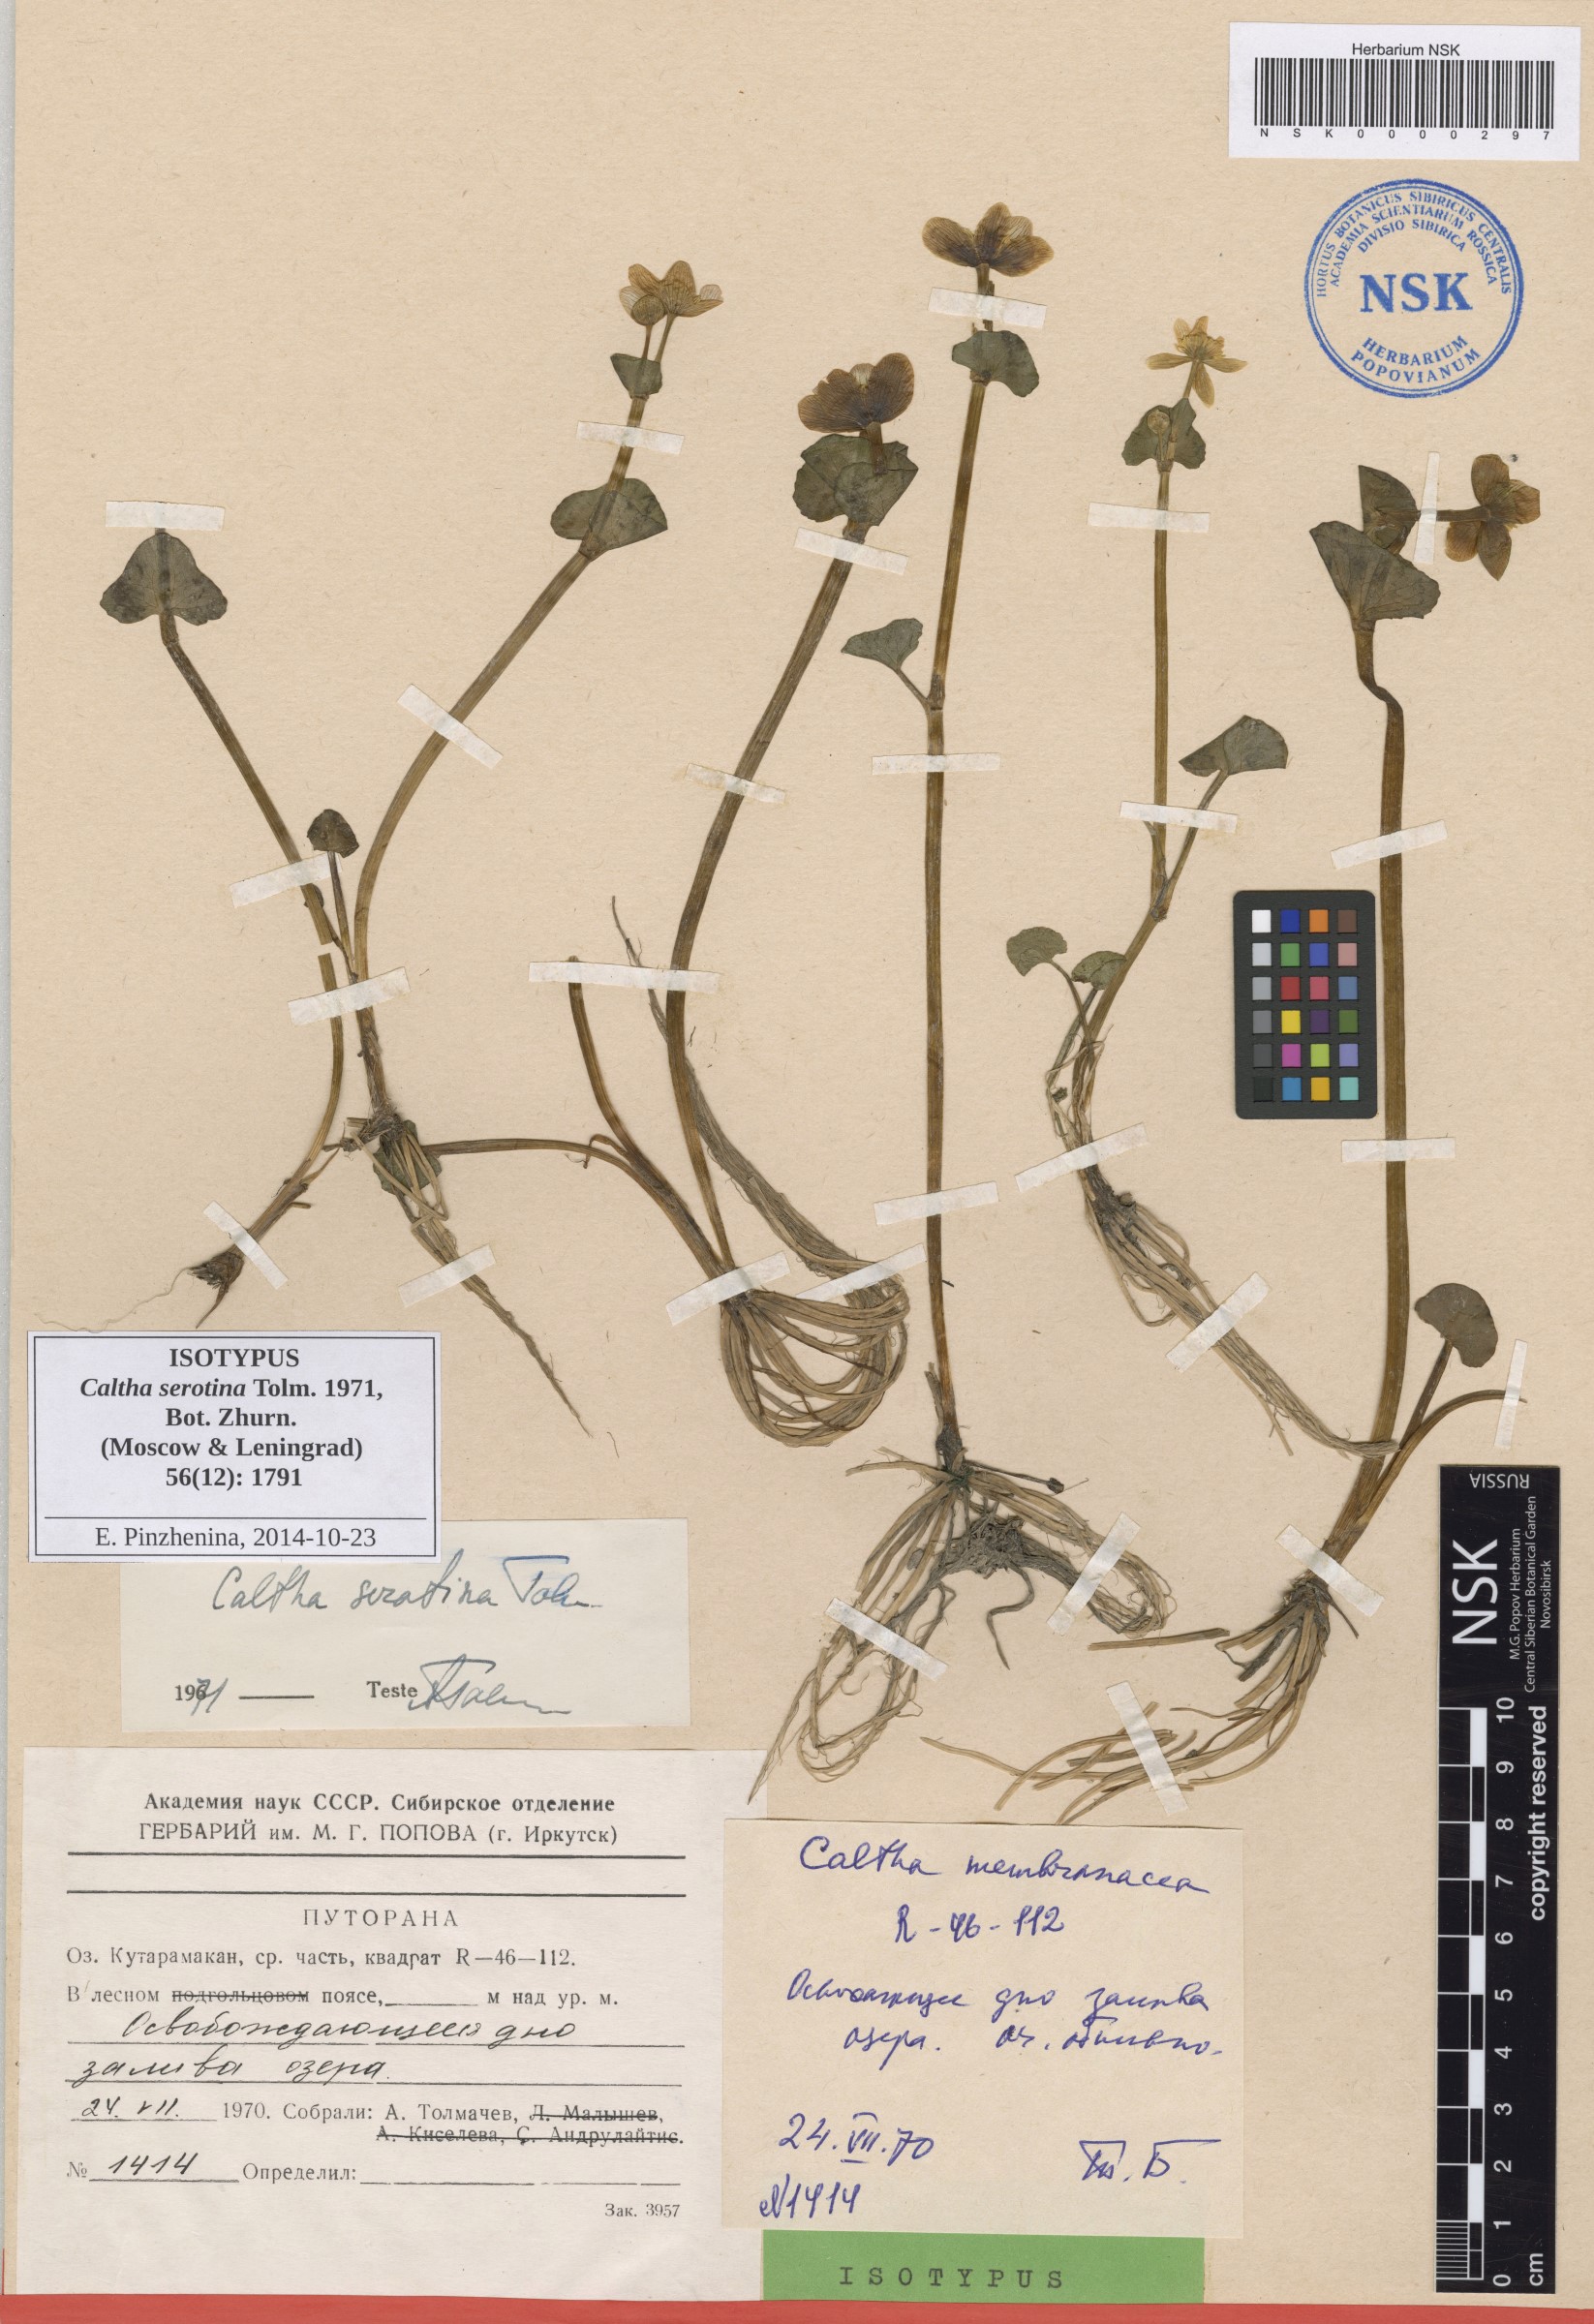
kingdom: Plantae
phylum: Tracheophyta
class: Magnoliopsida
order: Ranunculales
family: Ranunculaceae
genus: Caltha
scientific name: Caltha palustris
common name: Marsh marigold
